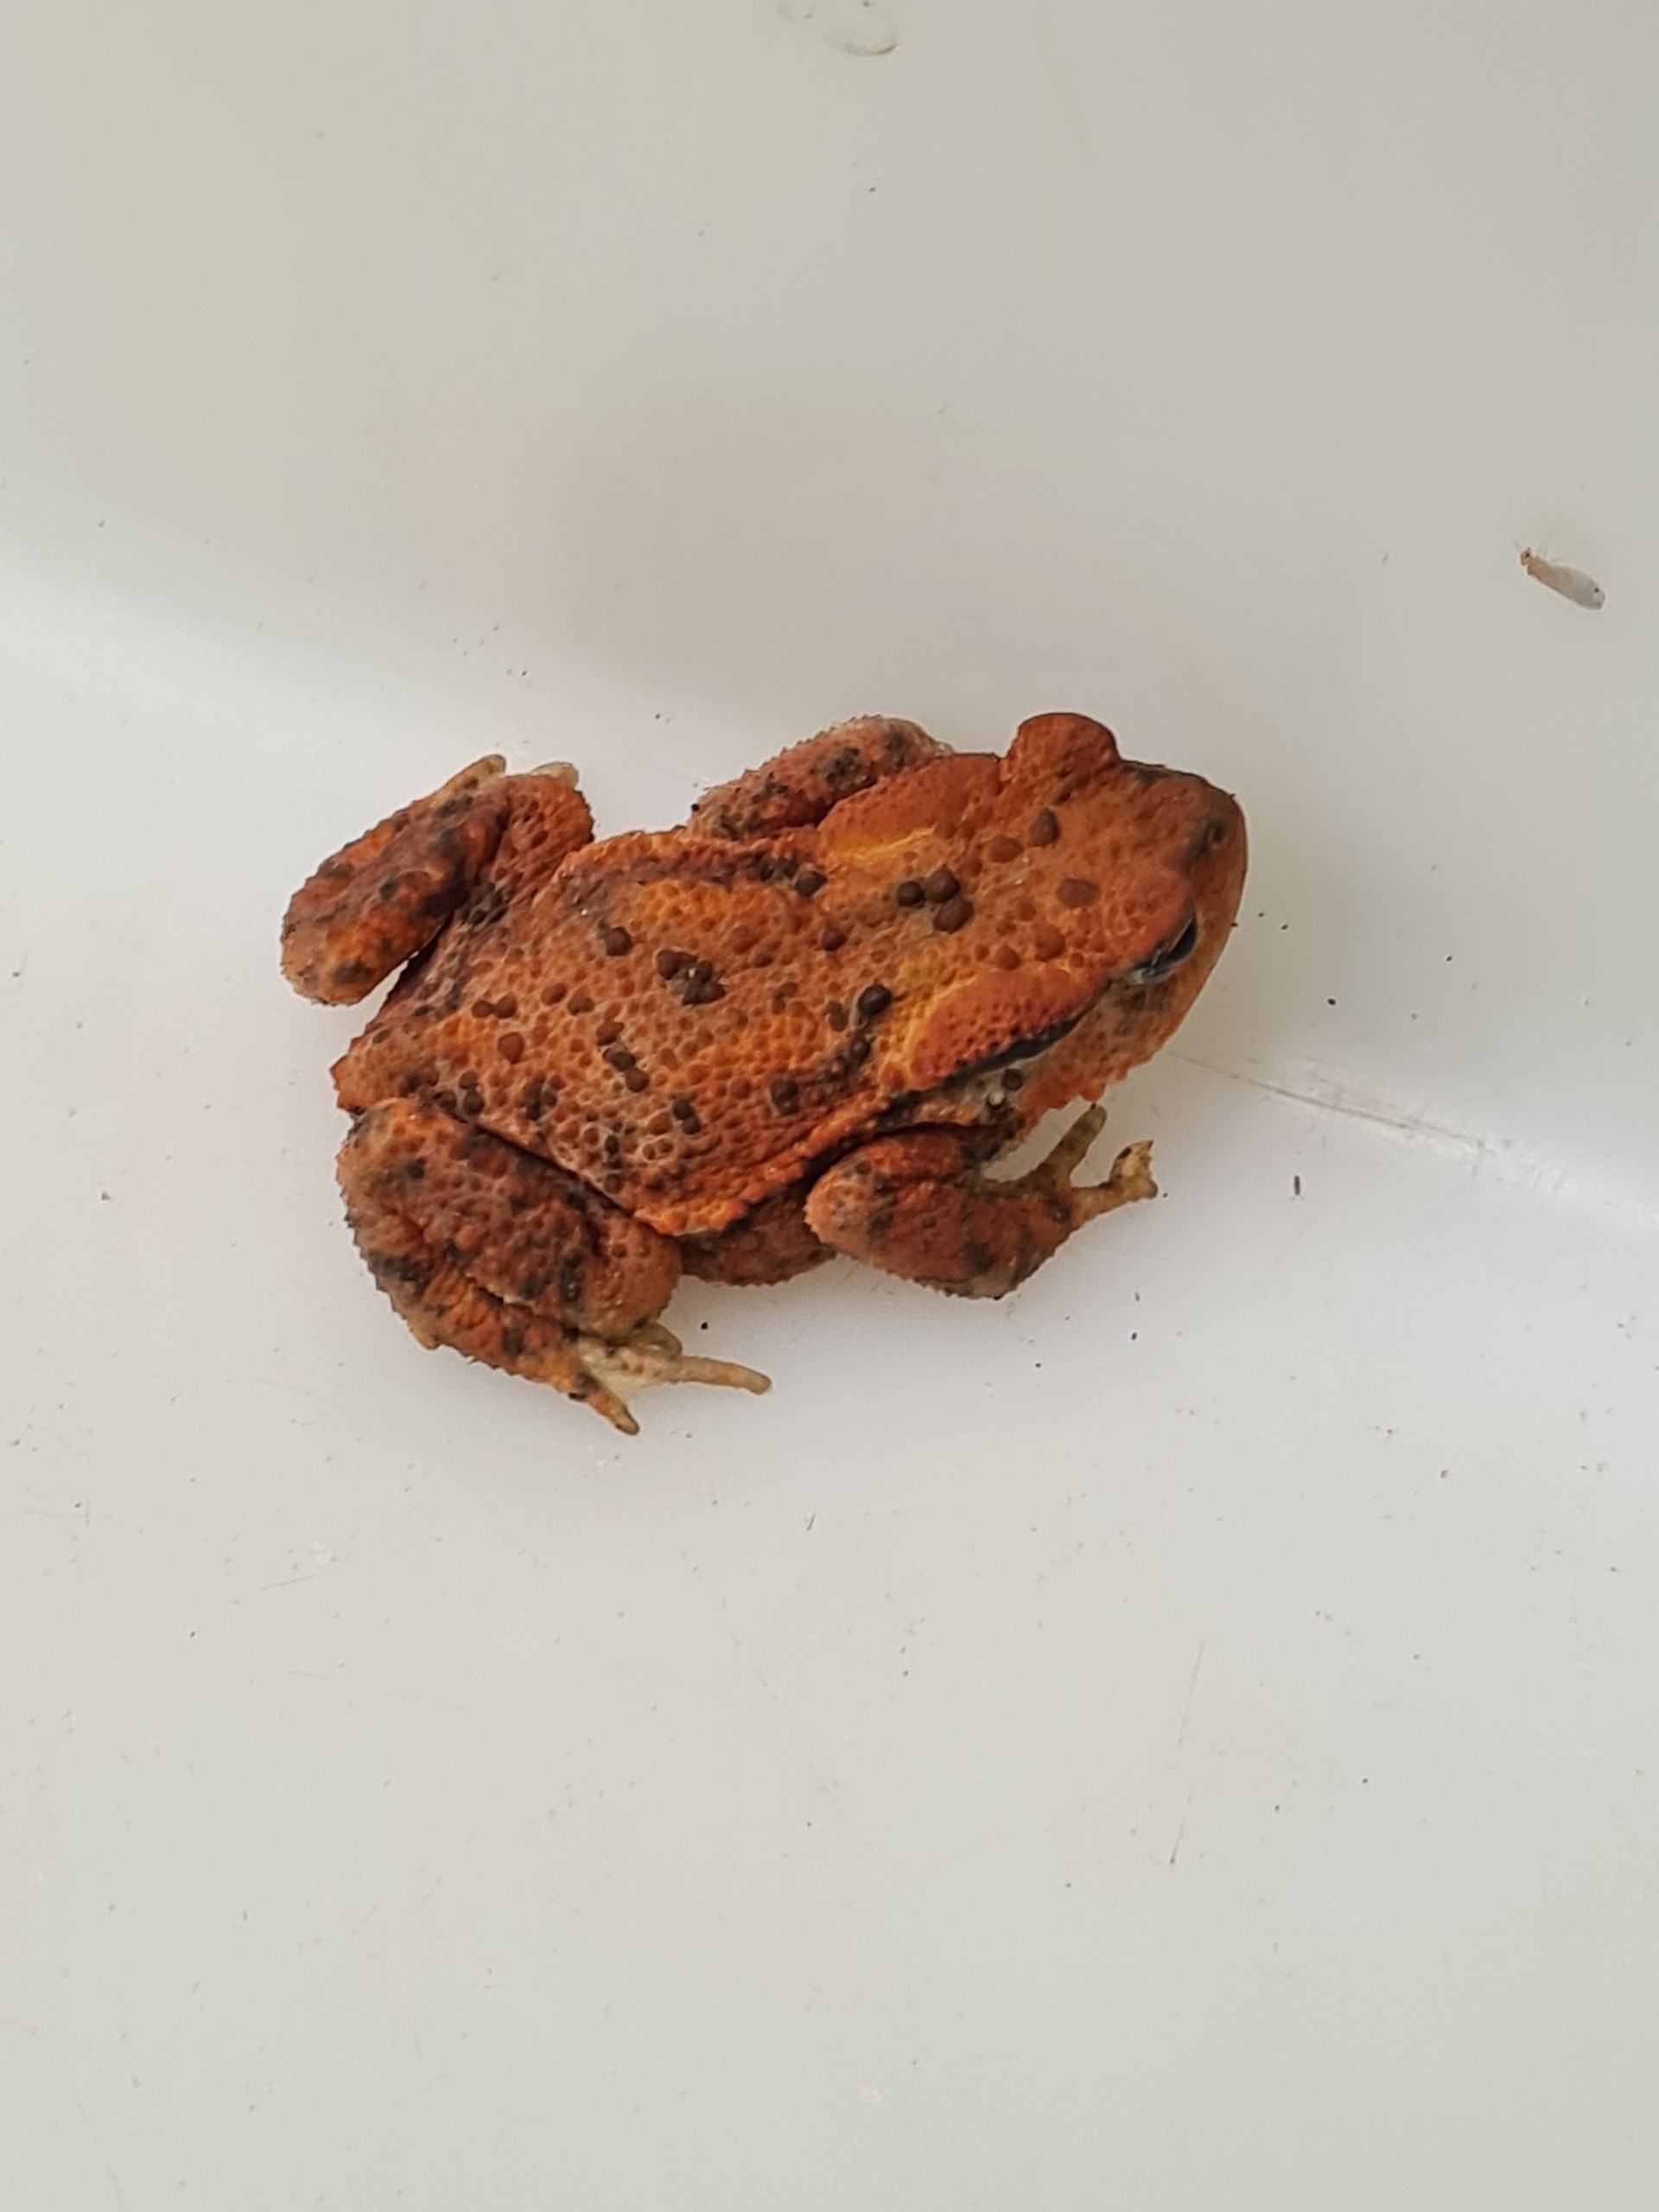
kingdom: Animalia
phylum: Chordata
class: Amphibia
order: Anura
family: Bufonidae
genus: Bufo
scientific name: Bufo bufo
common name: Skrubtudse
